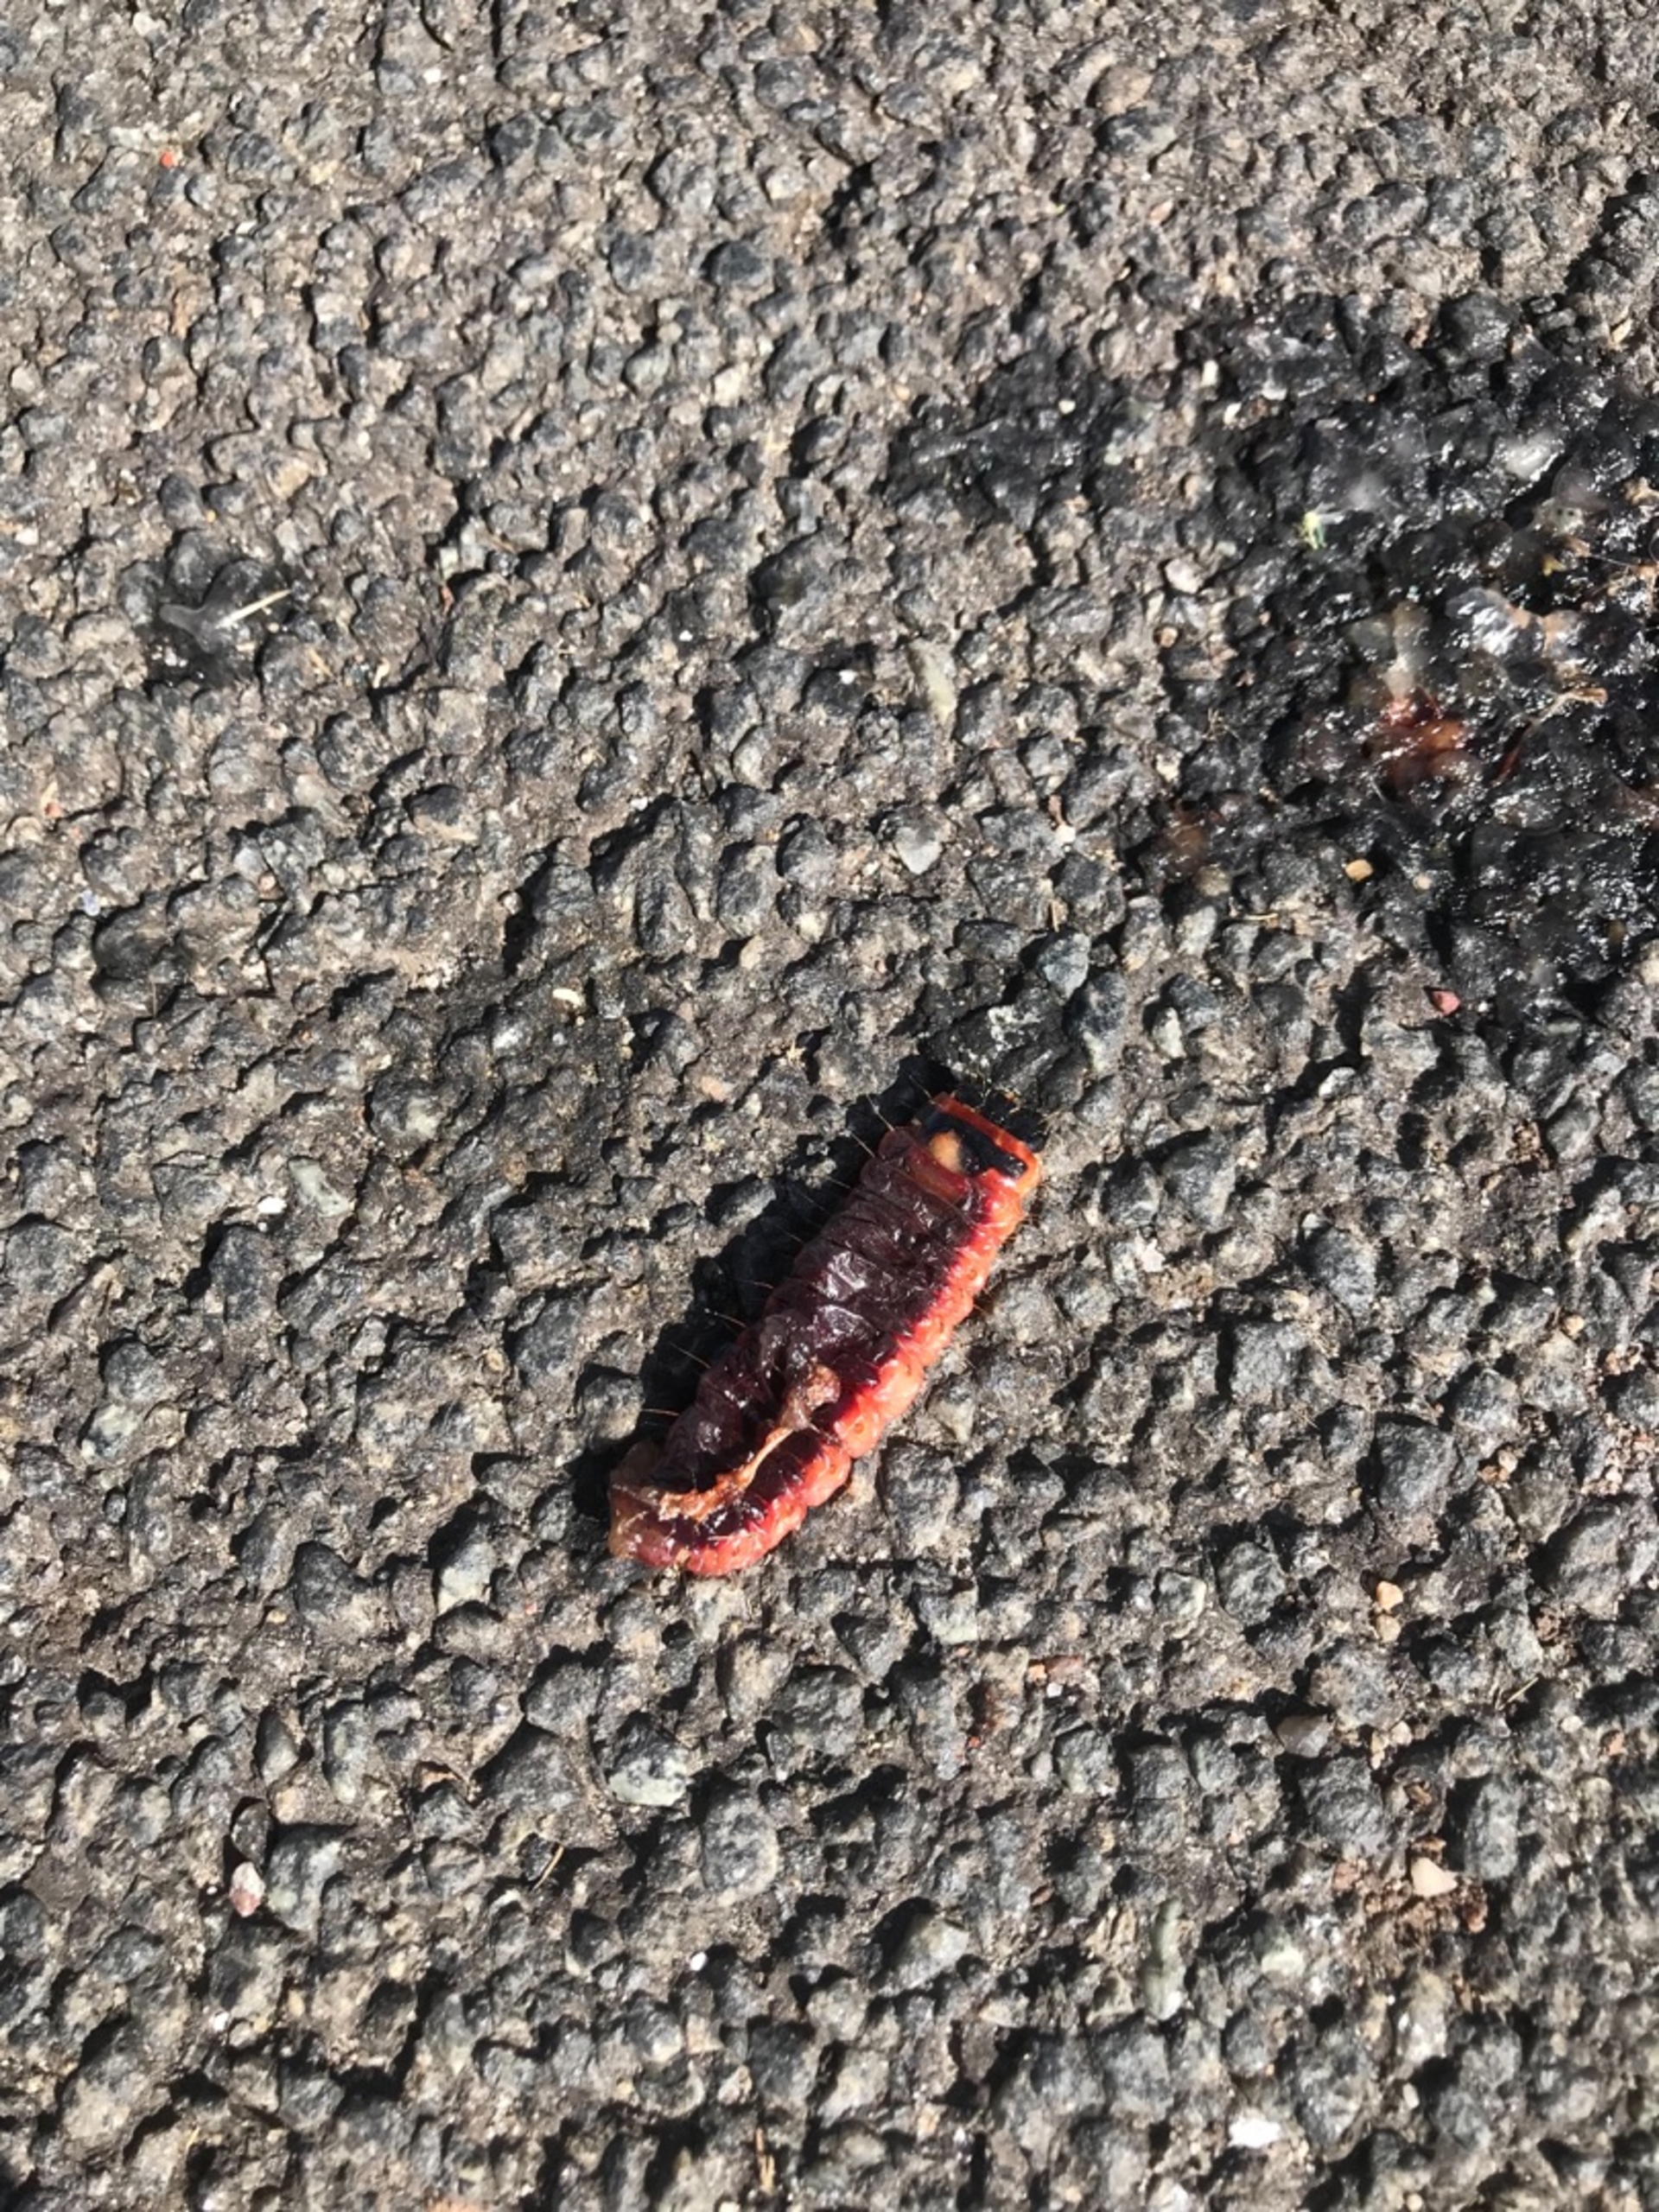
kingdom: Animalia
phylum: Arthropoda
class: Insecta
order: Lepidoptera
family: Cossidae
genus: Cossus
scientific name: Cossus cossus
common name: Pileborer
